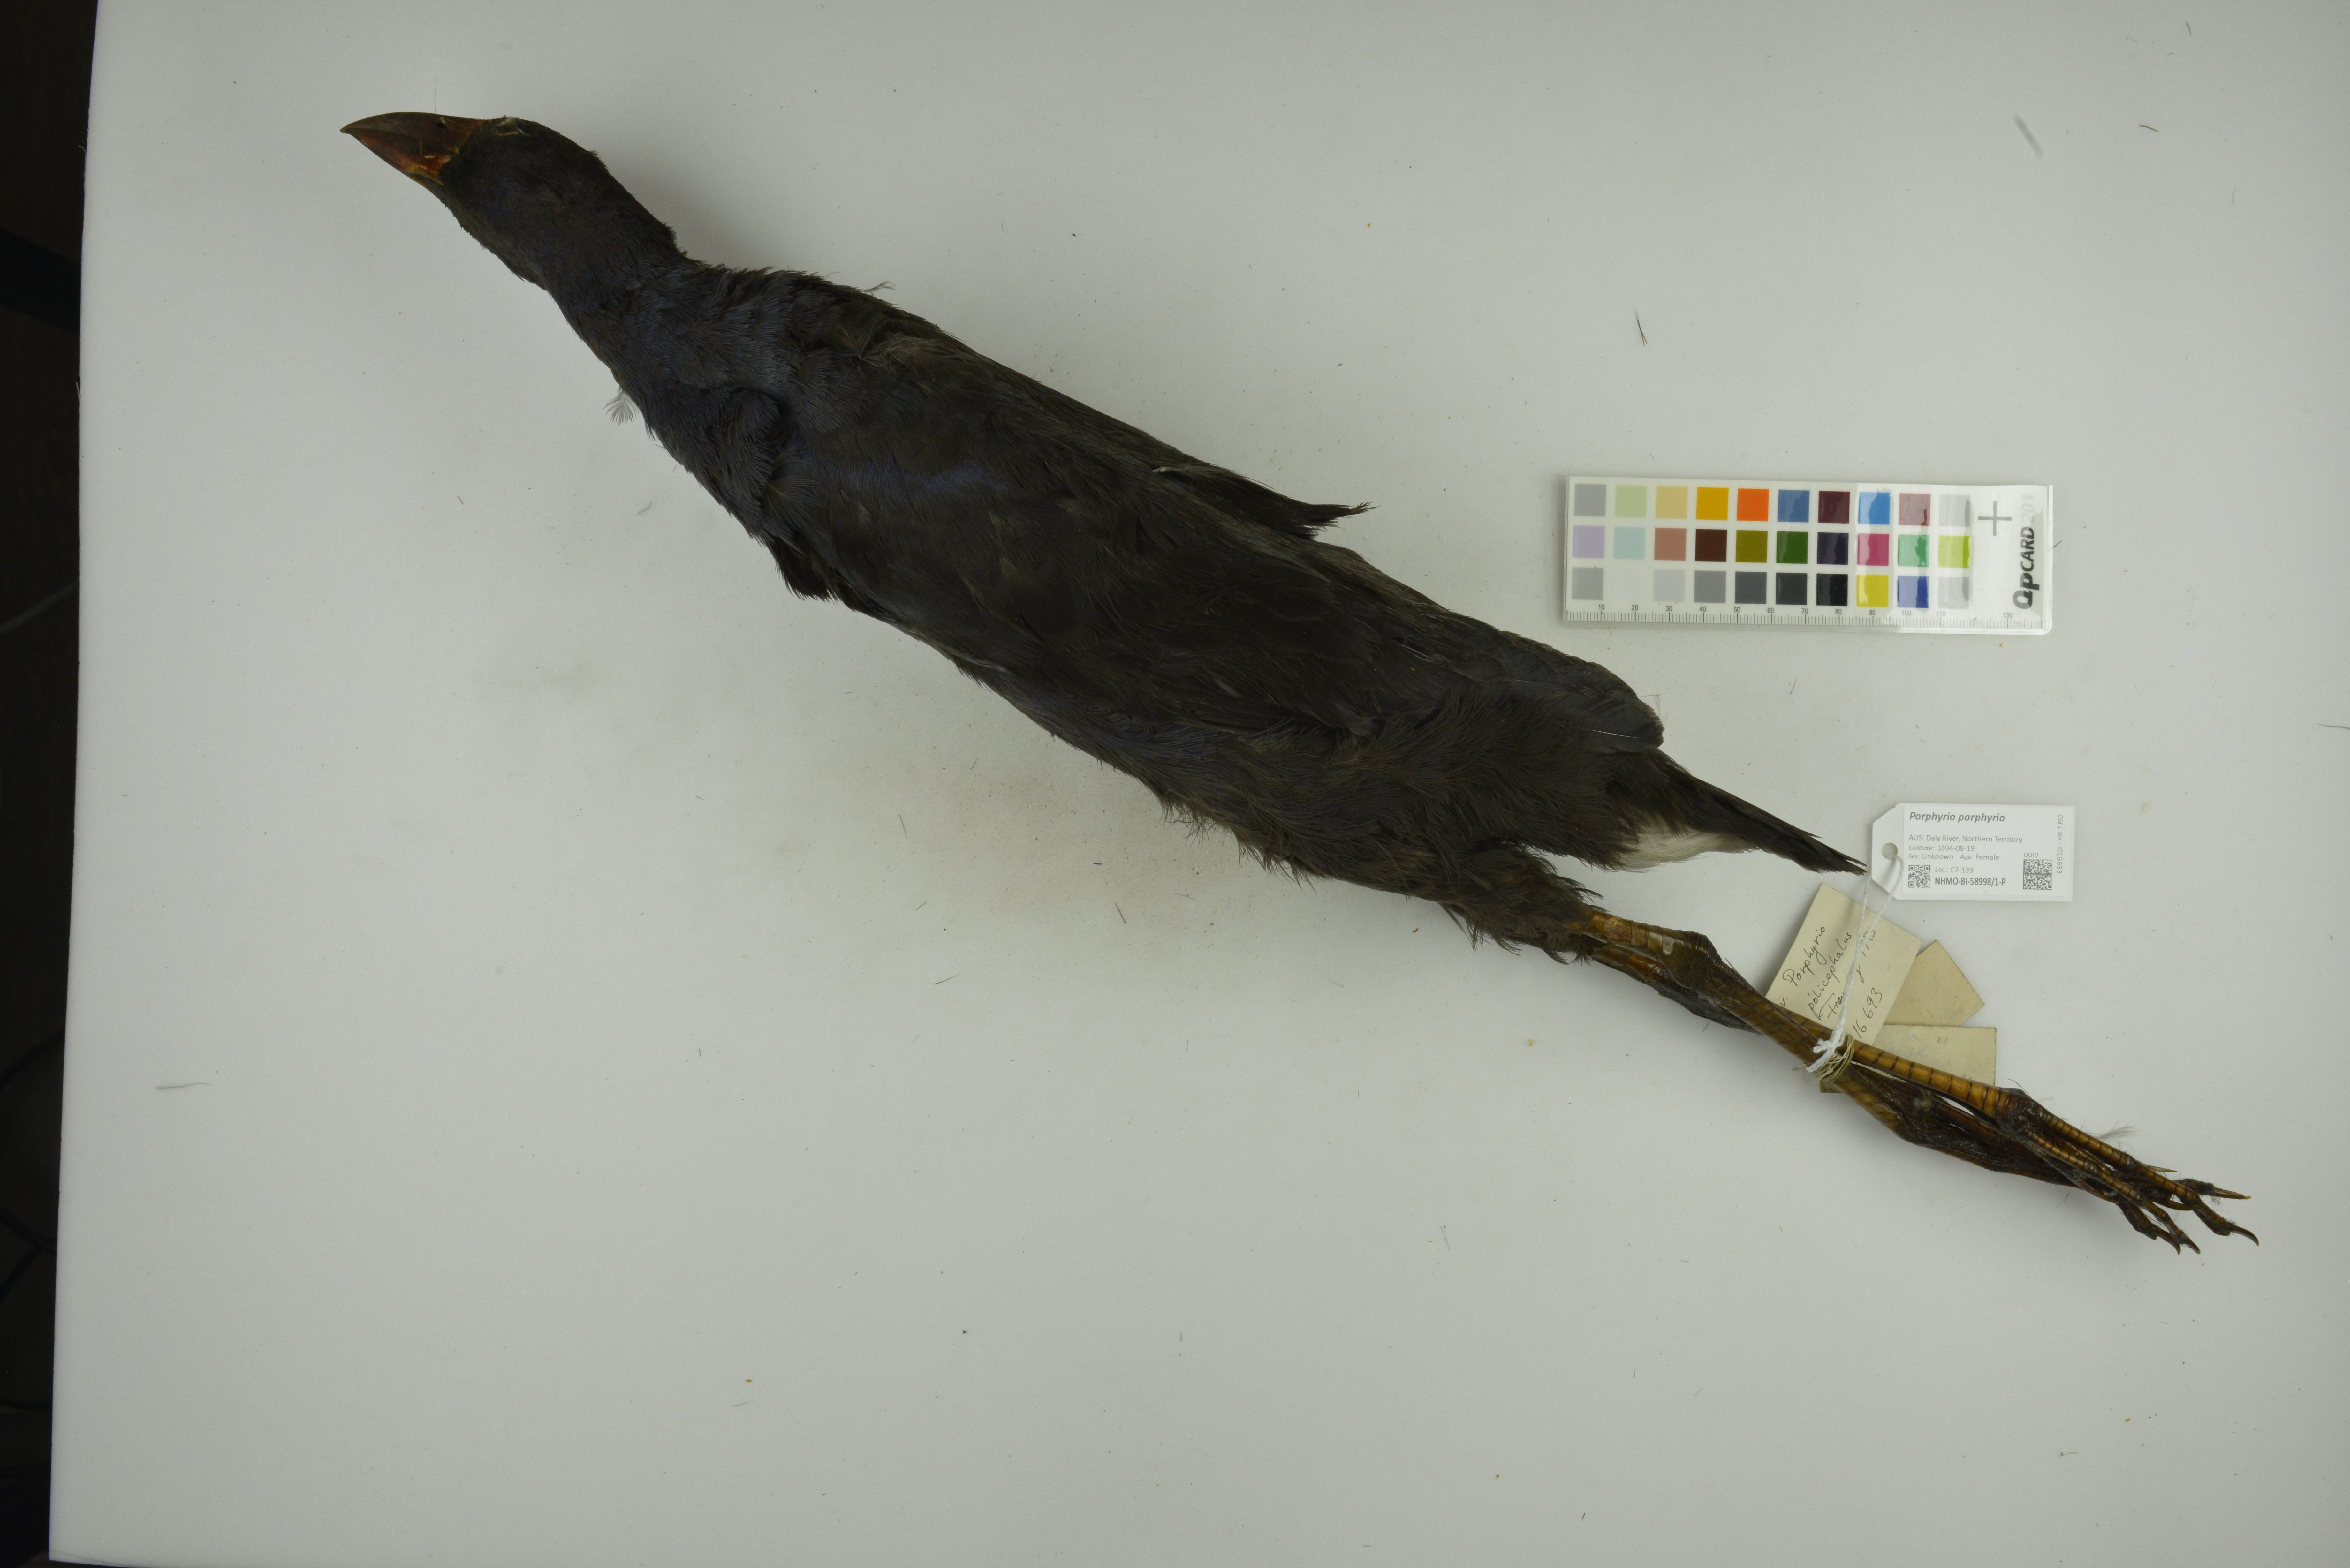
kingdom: Animalia
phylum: Chordata
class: Aves
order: Gruiformes
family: Rallidae
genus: Porphyrio
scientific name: Porphyrio porphyrio
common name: Purple swamphen
